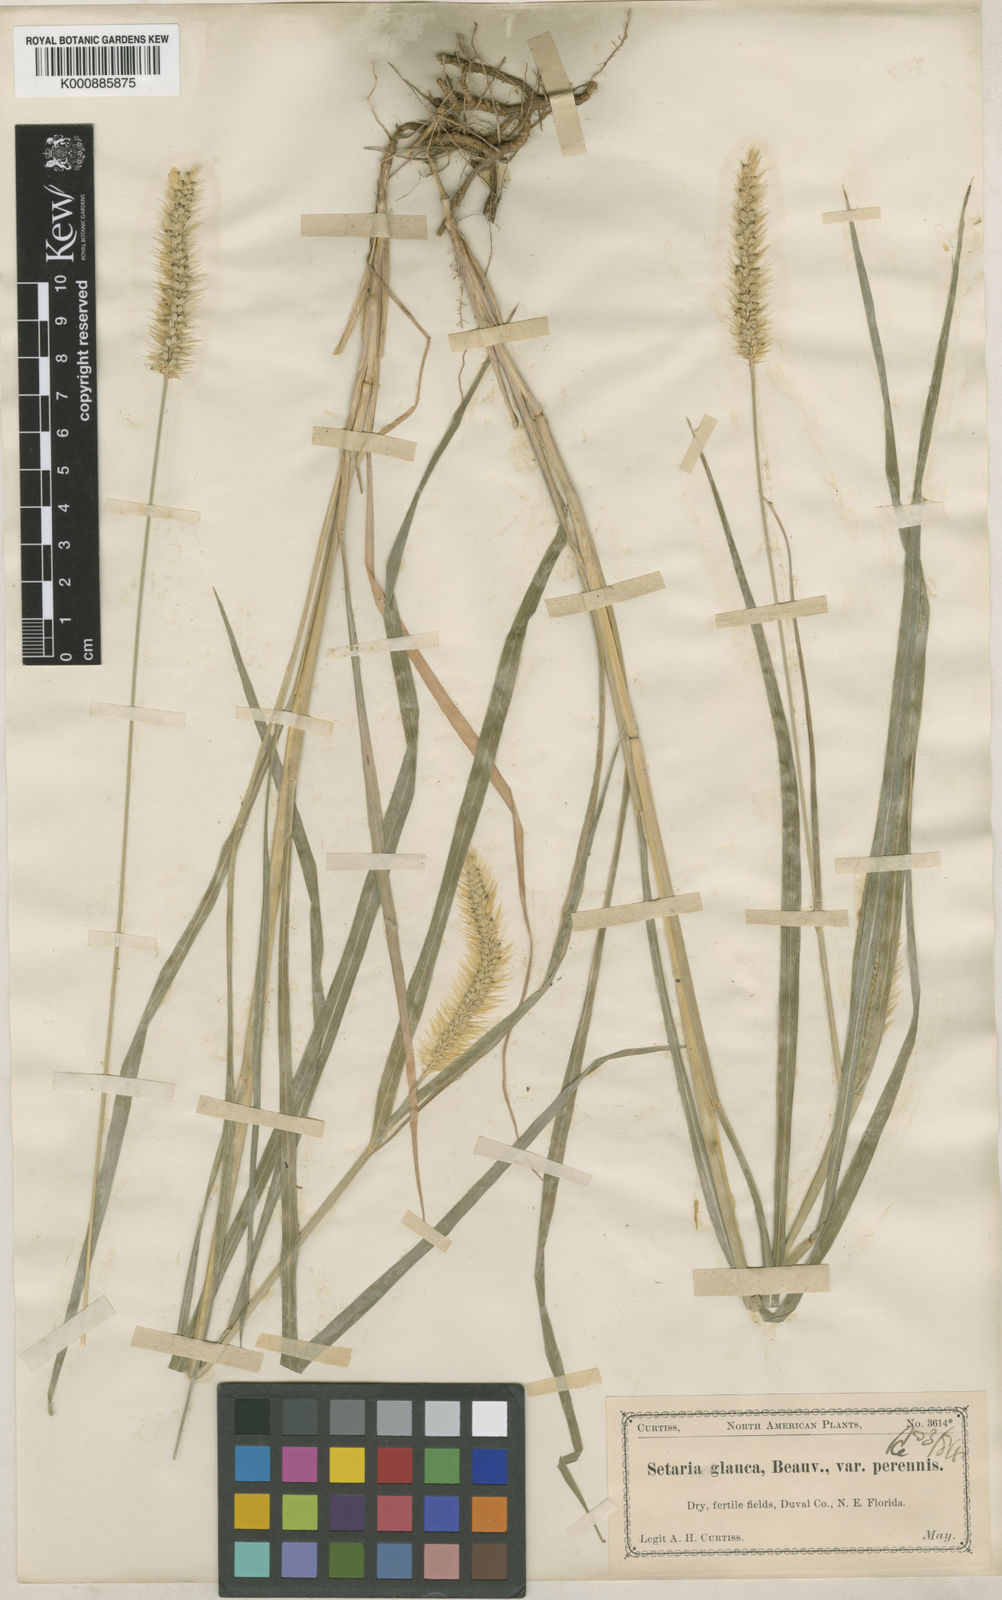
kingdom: Plantae
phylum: Tracheophyta
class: Liliopsida
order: Poales
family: Poaceae
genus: Setaria
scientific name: Setaria
